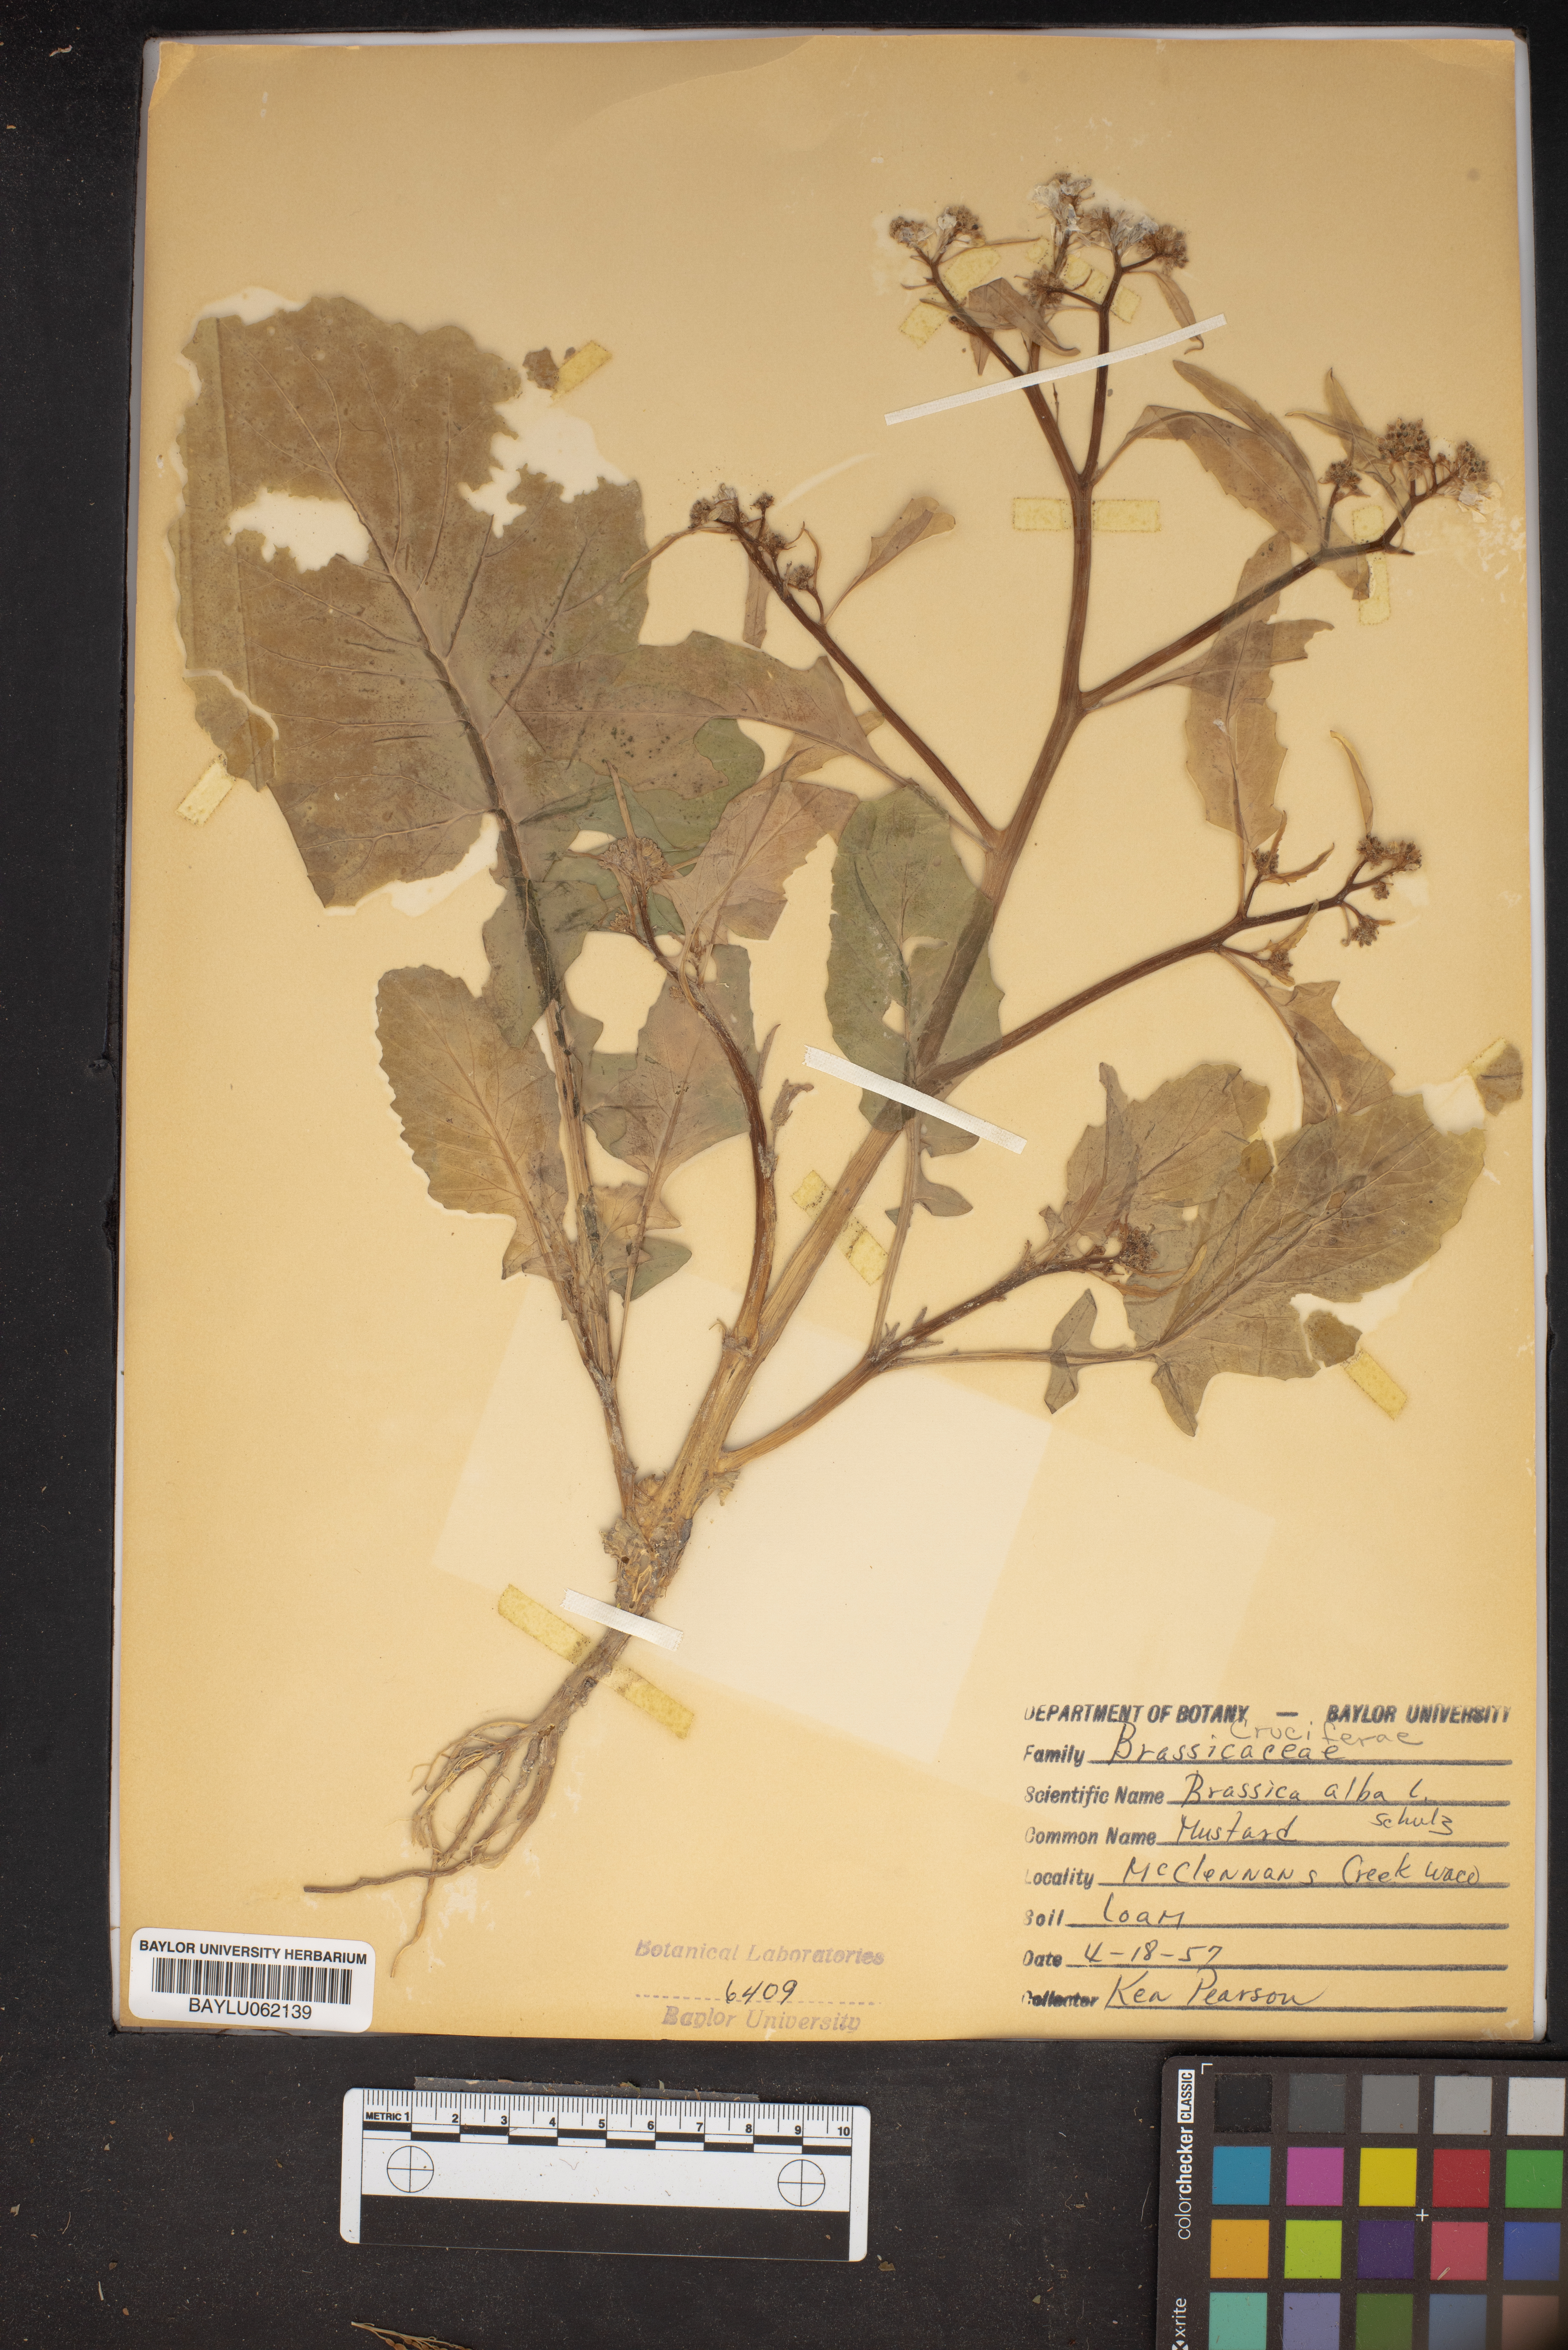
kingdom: Plantae
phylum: Tracheophyta
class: Magnoliopsida
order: Brassicales
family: Brassicaceae
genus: Sinapis
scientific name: Sinapis alba
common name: White mustard
